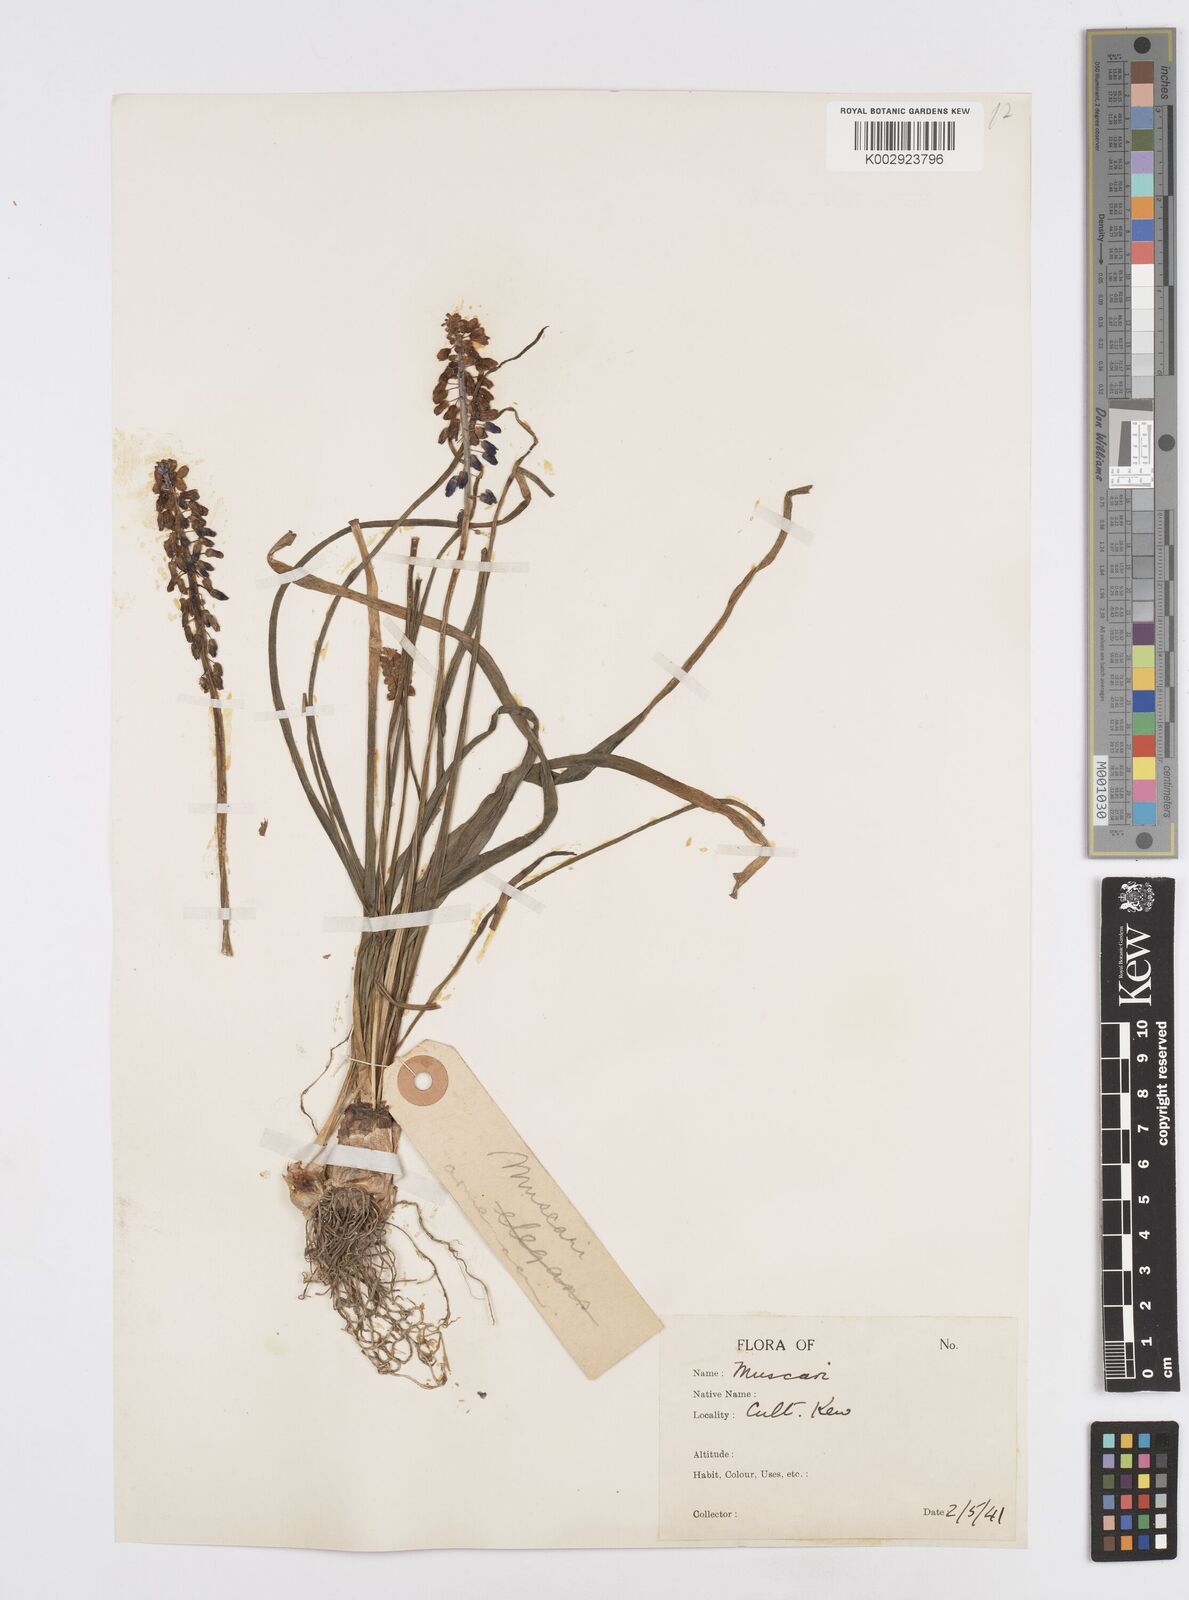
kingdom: Plantae
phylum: Tracheophyta
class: Liliopsida
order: Asparagales
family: Asparagaceae
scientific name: Asparagaceae
